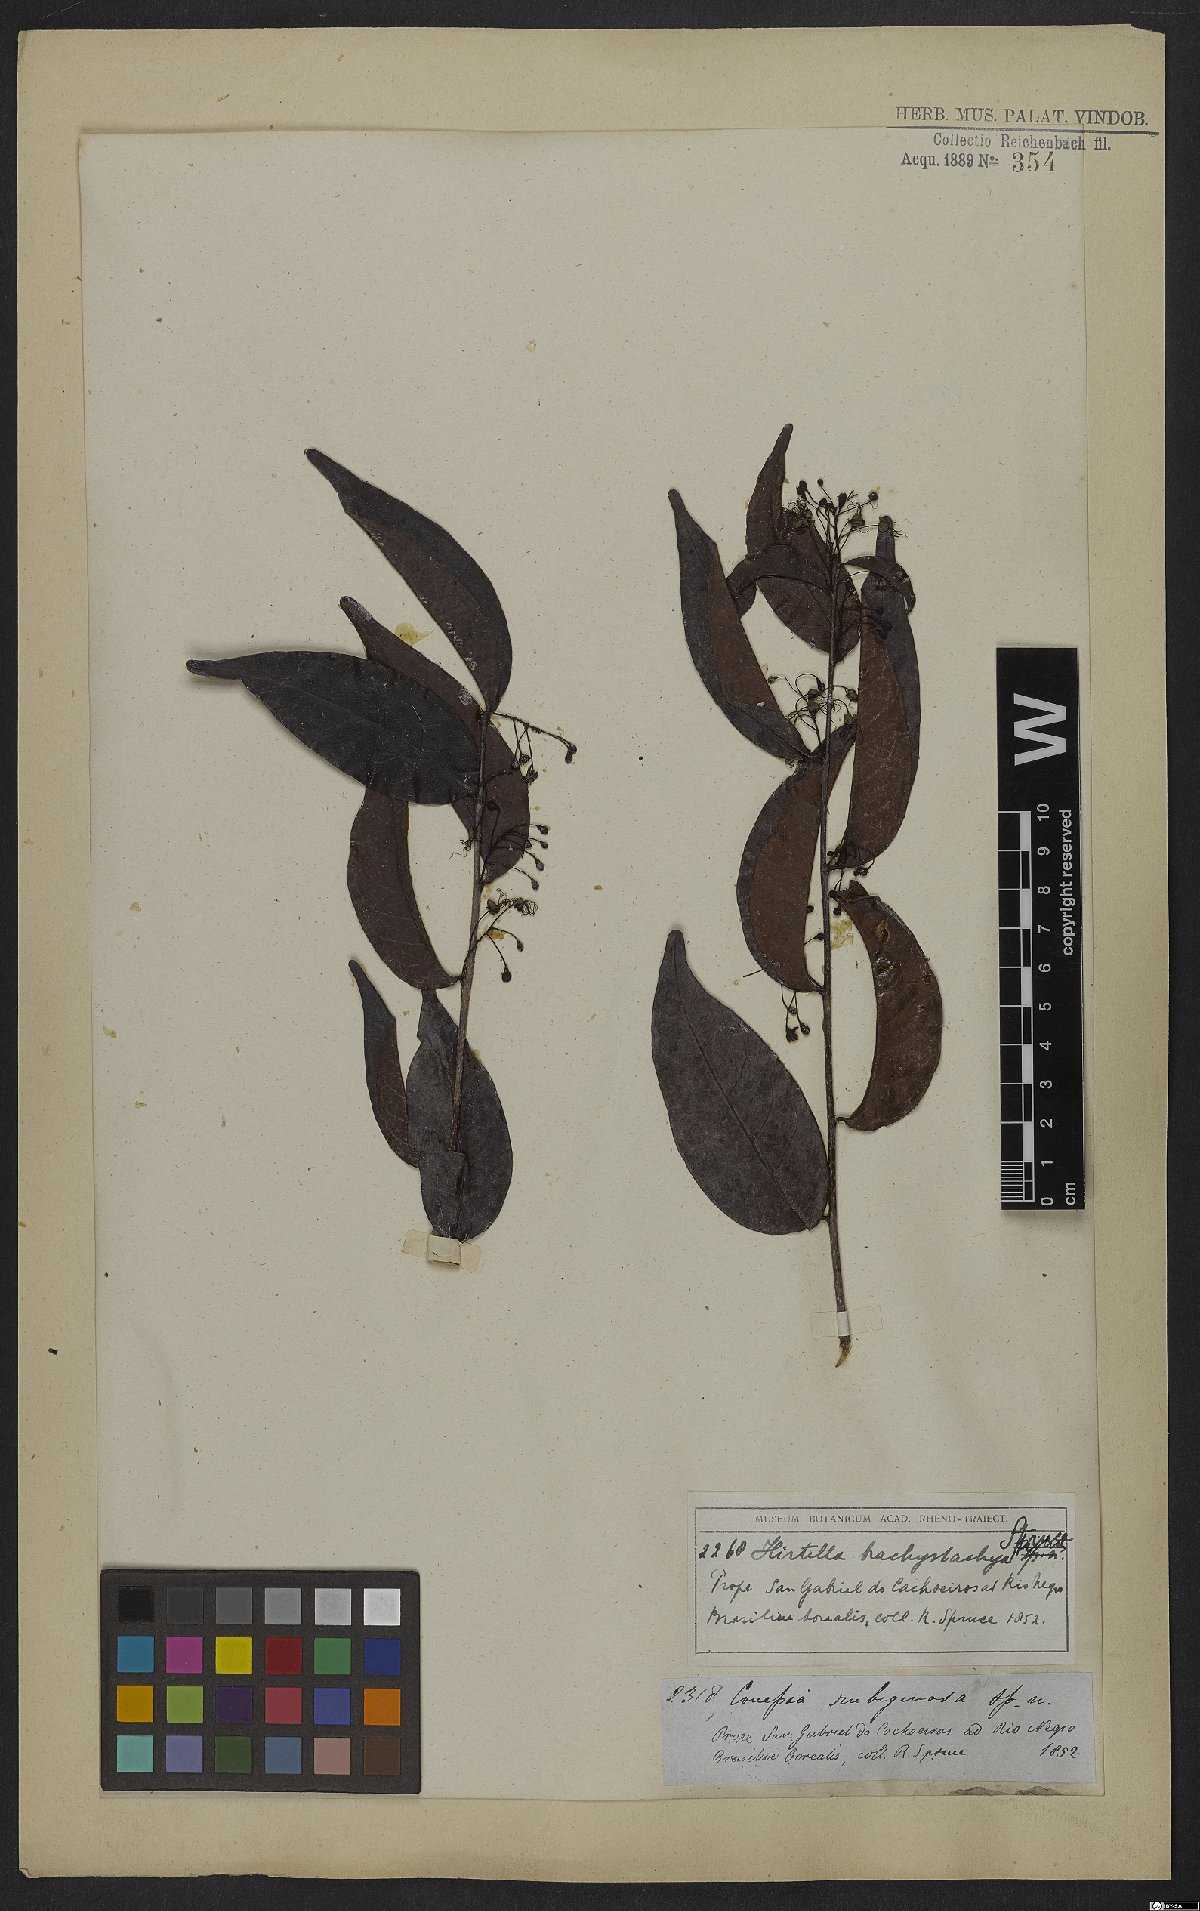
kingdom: Plantae
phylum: Tracheophyta
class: Magnoliopsida
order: Malpighiales
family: Chrysobalanaceae
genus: Hirtella
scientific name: Hirtella brachystachya
